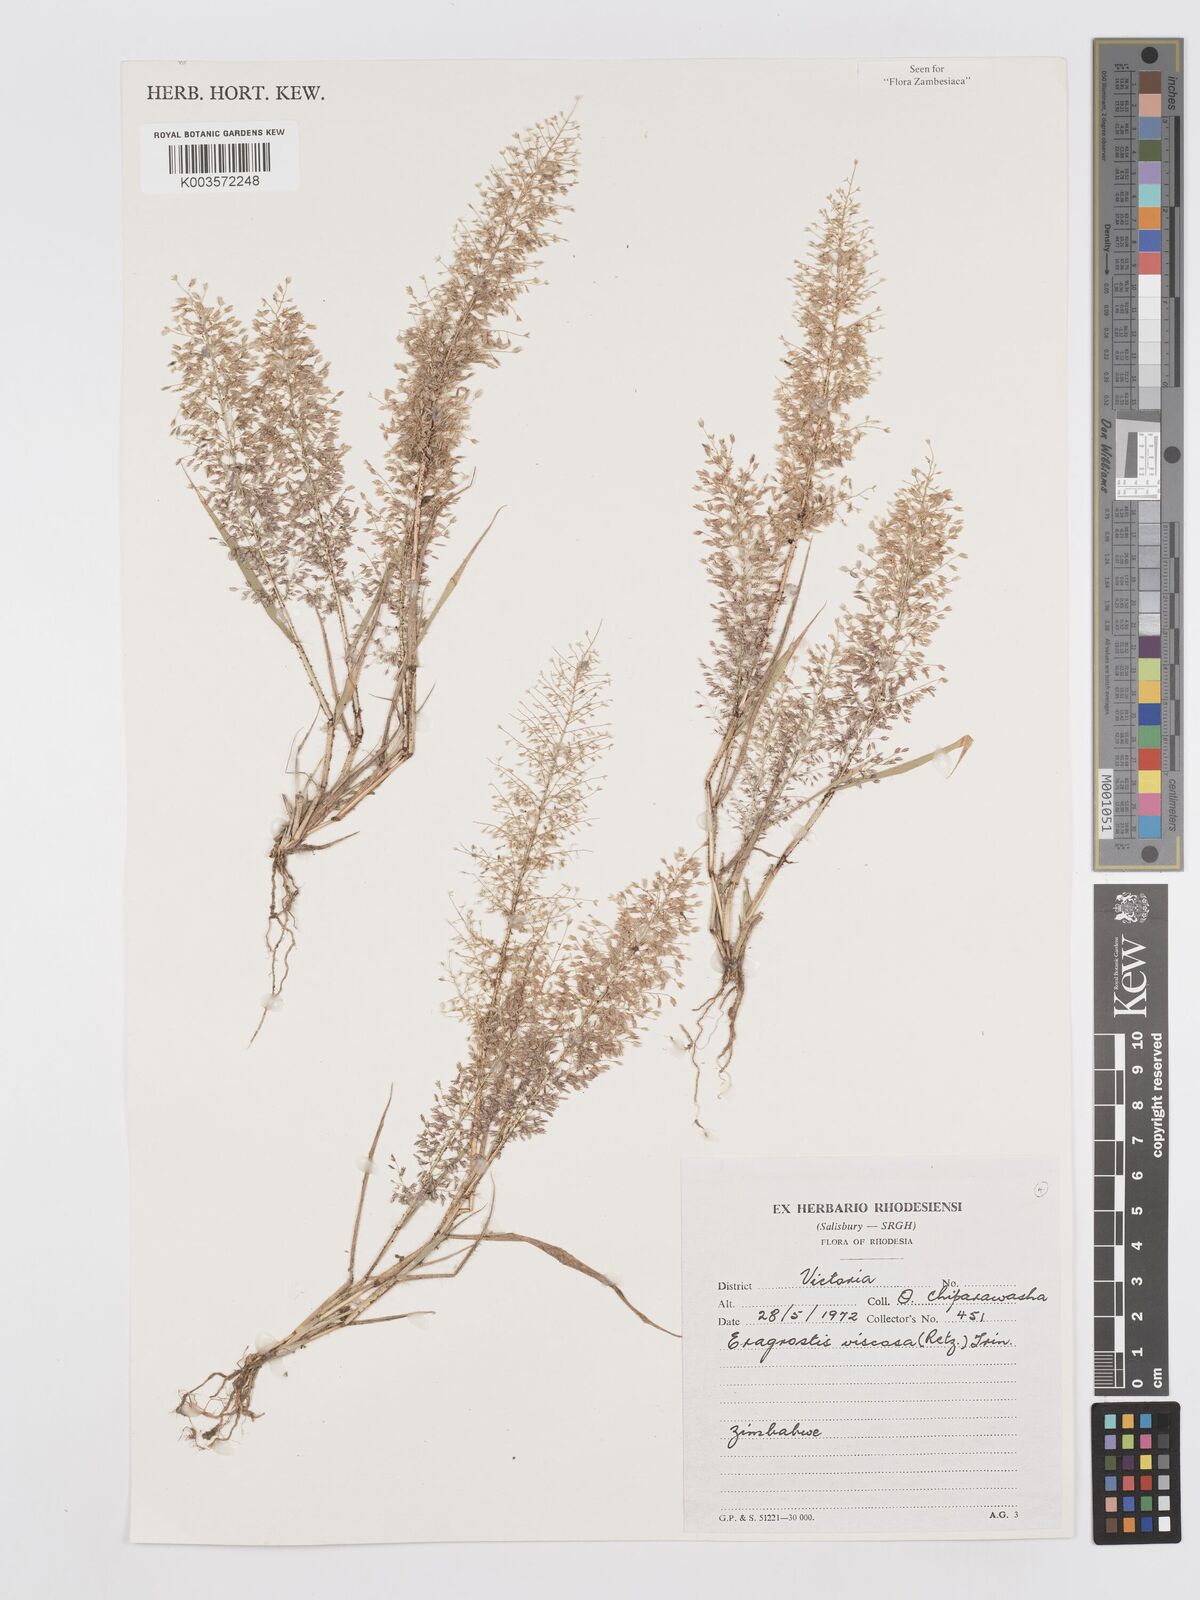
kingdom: Plantae
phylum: Tracheophyta
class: Liliopsida
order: Poales
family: Poaceae
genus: Eragrostis
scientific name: Eragrostis
